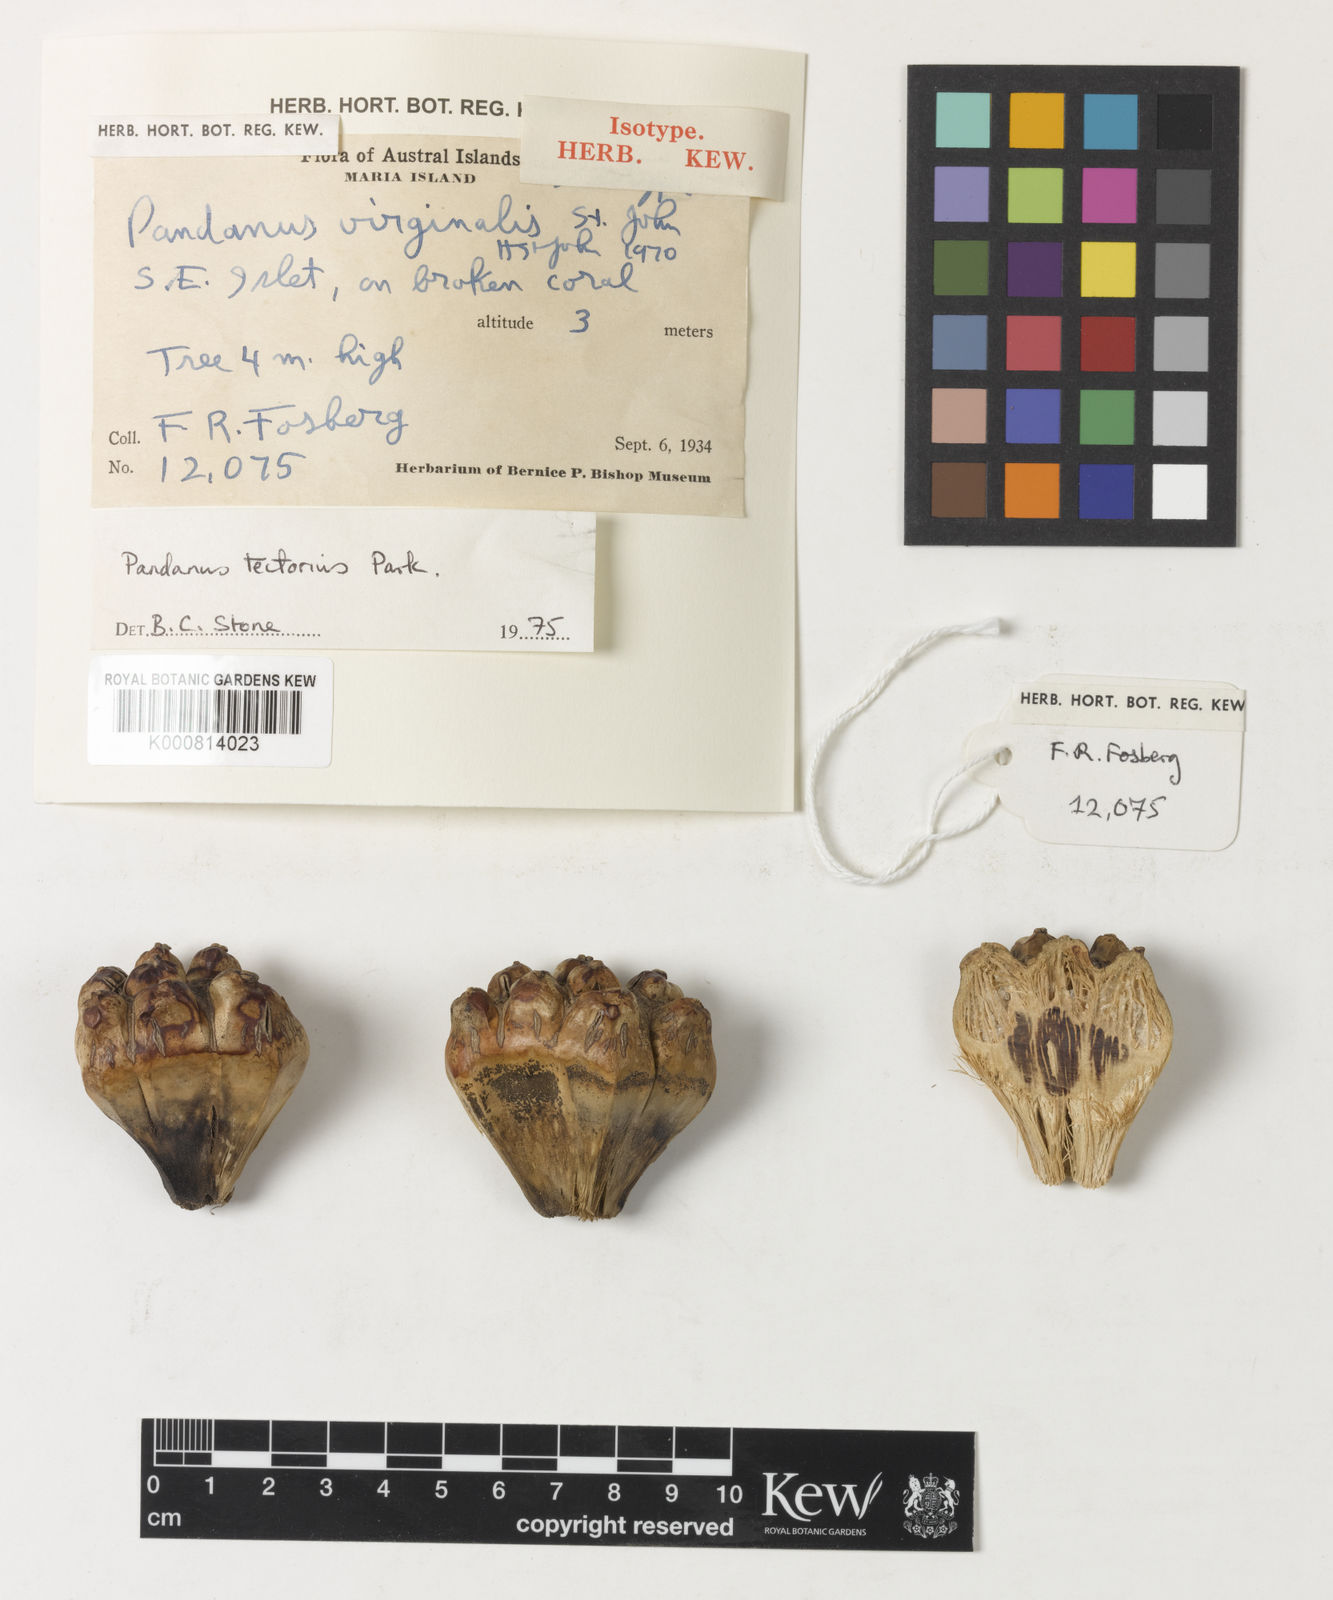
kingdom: Plantae
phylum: Tracheophyta
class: Liliopsida
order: Pandanales
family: Pandanaceae
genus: Pandanus
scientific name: Pandanus
